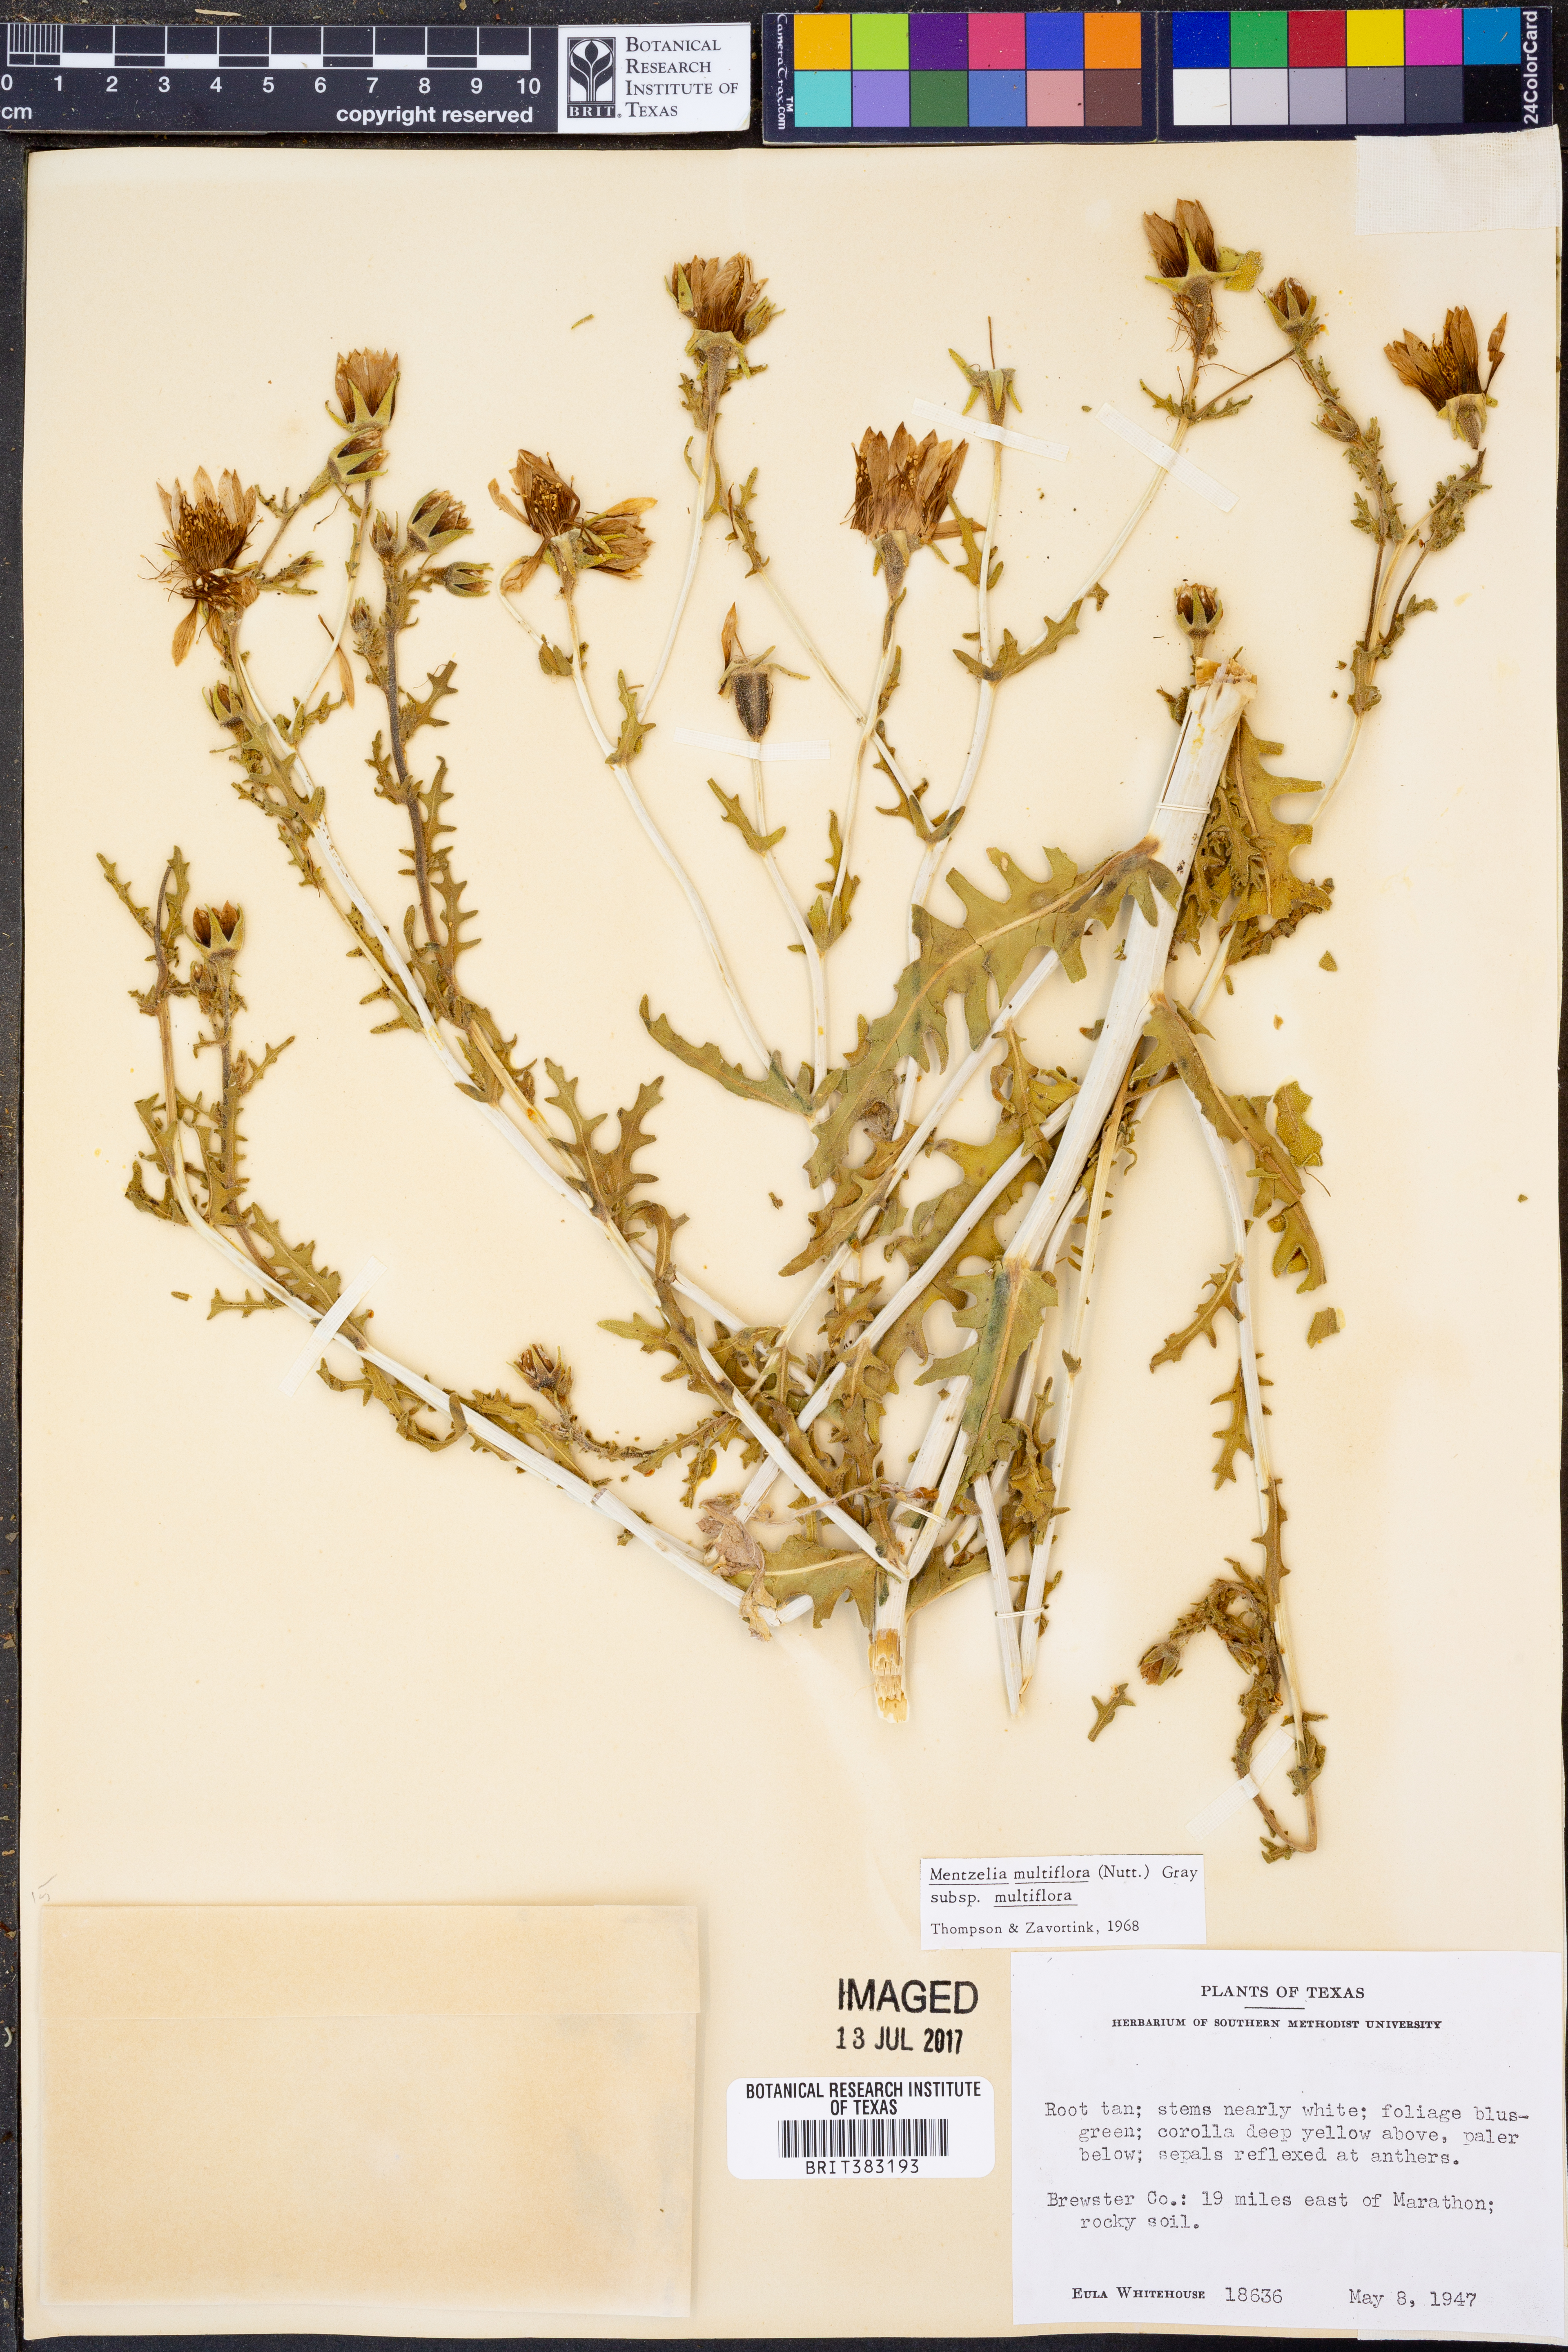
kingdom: Plantae
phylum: Tracheophyta
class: Magnoliopsida
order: Cornales
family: Loasaceae
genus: Mentzelia
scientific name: Mentzelia multiflora
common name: Adonis blazingstar
